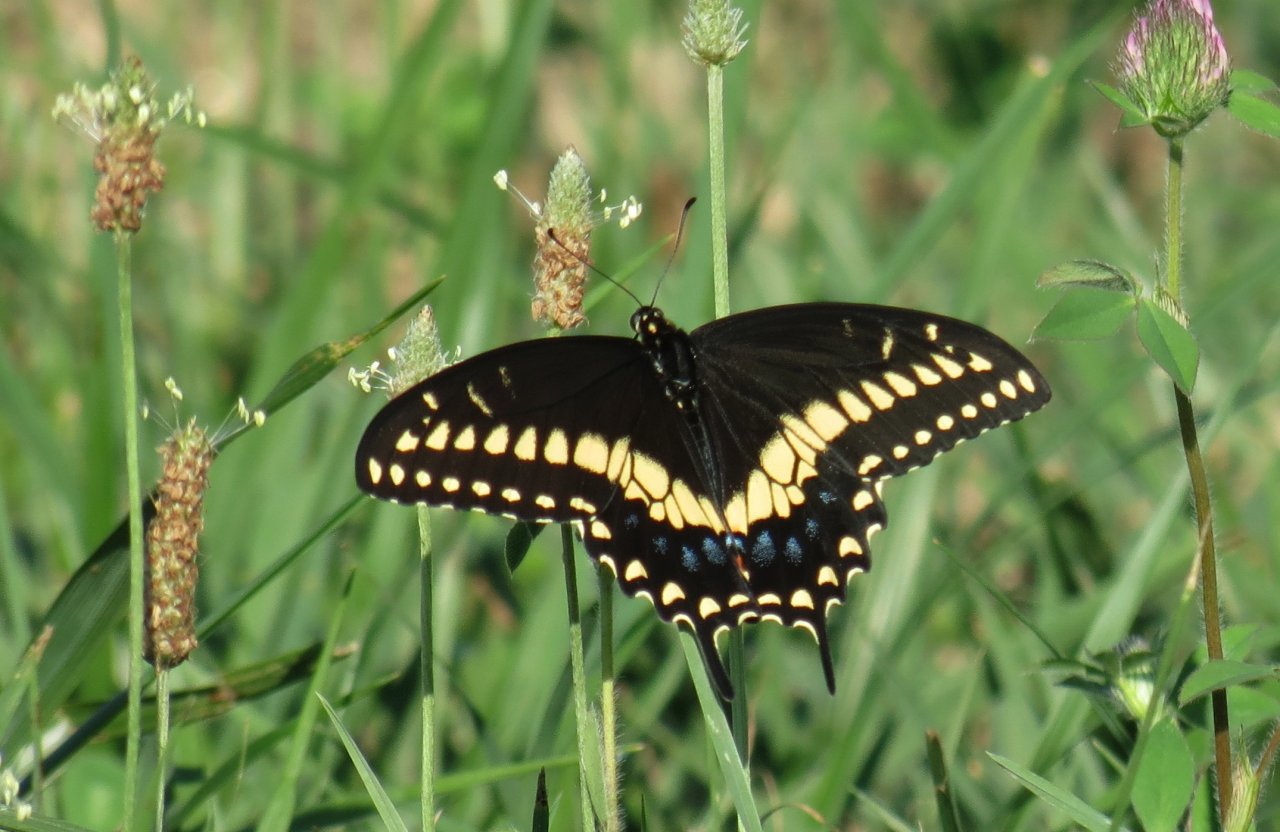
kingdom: Animalia
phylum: Arthropoda
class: Insecta
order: Lepidoptera
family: Papilionidae
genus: Papilio
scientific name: Papilio polyxenes
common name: Black Swallowtail
